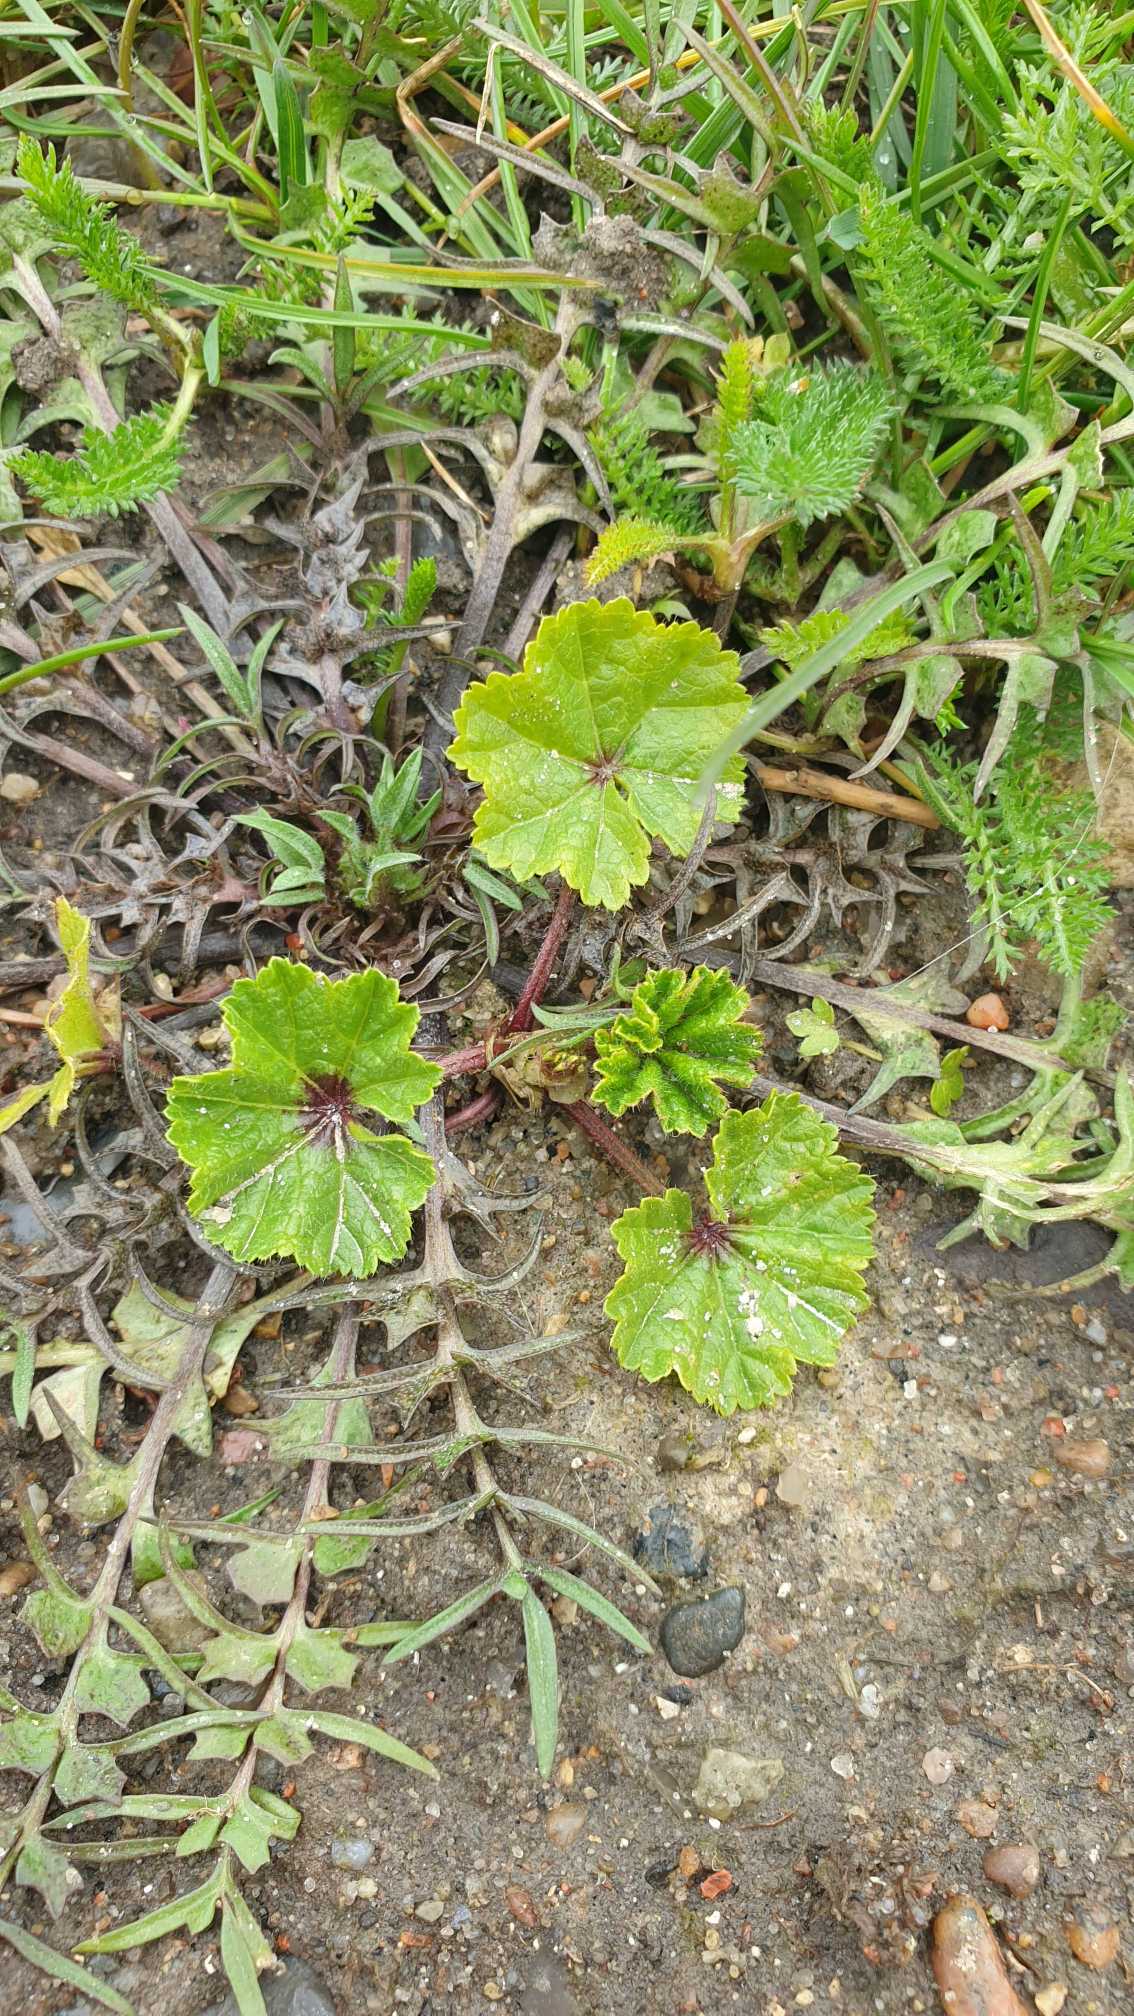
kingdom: Plantae
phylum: Tracheophyta
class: Magnoliopsida
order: Malvales
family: Malvaceae
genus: Malva
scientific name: Malva sylvestris
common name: Almindelig katost
